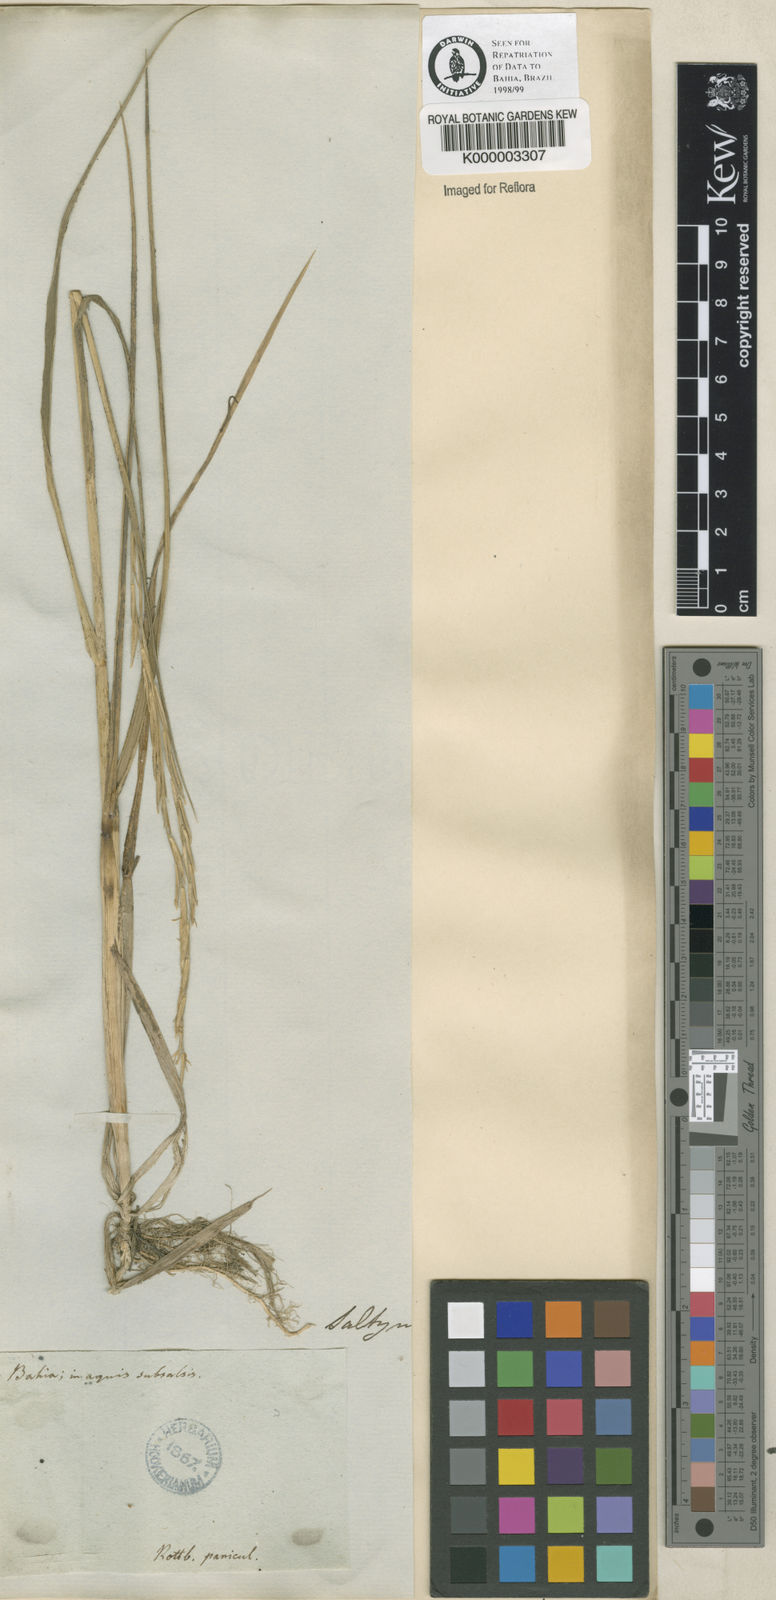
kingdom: Animalia
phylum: Mollusca
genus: Spartina
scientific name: Spartina
